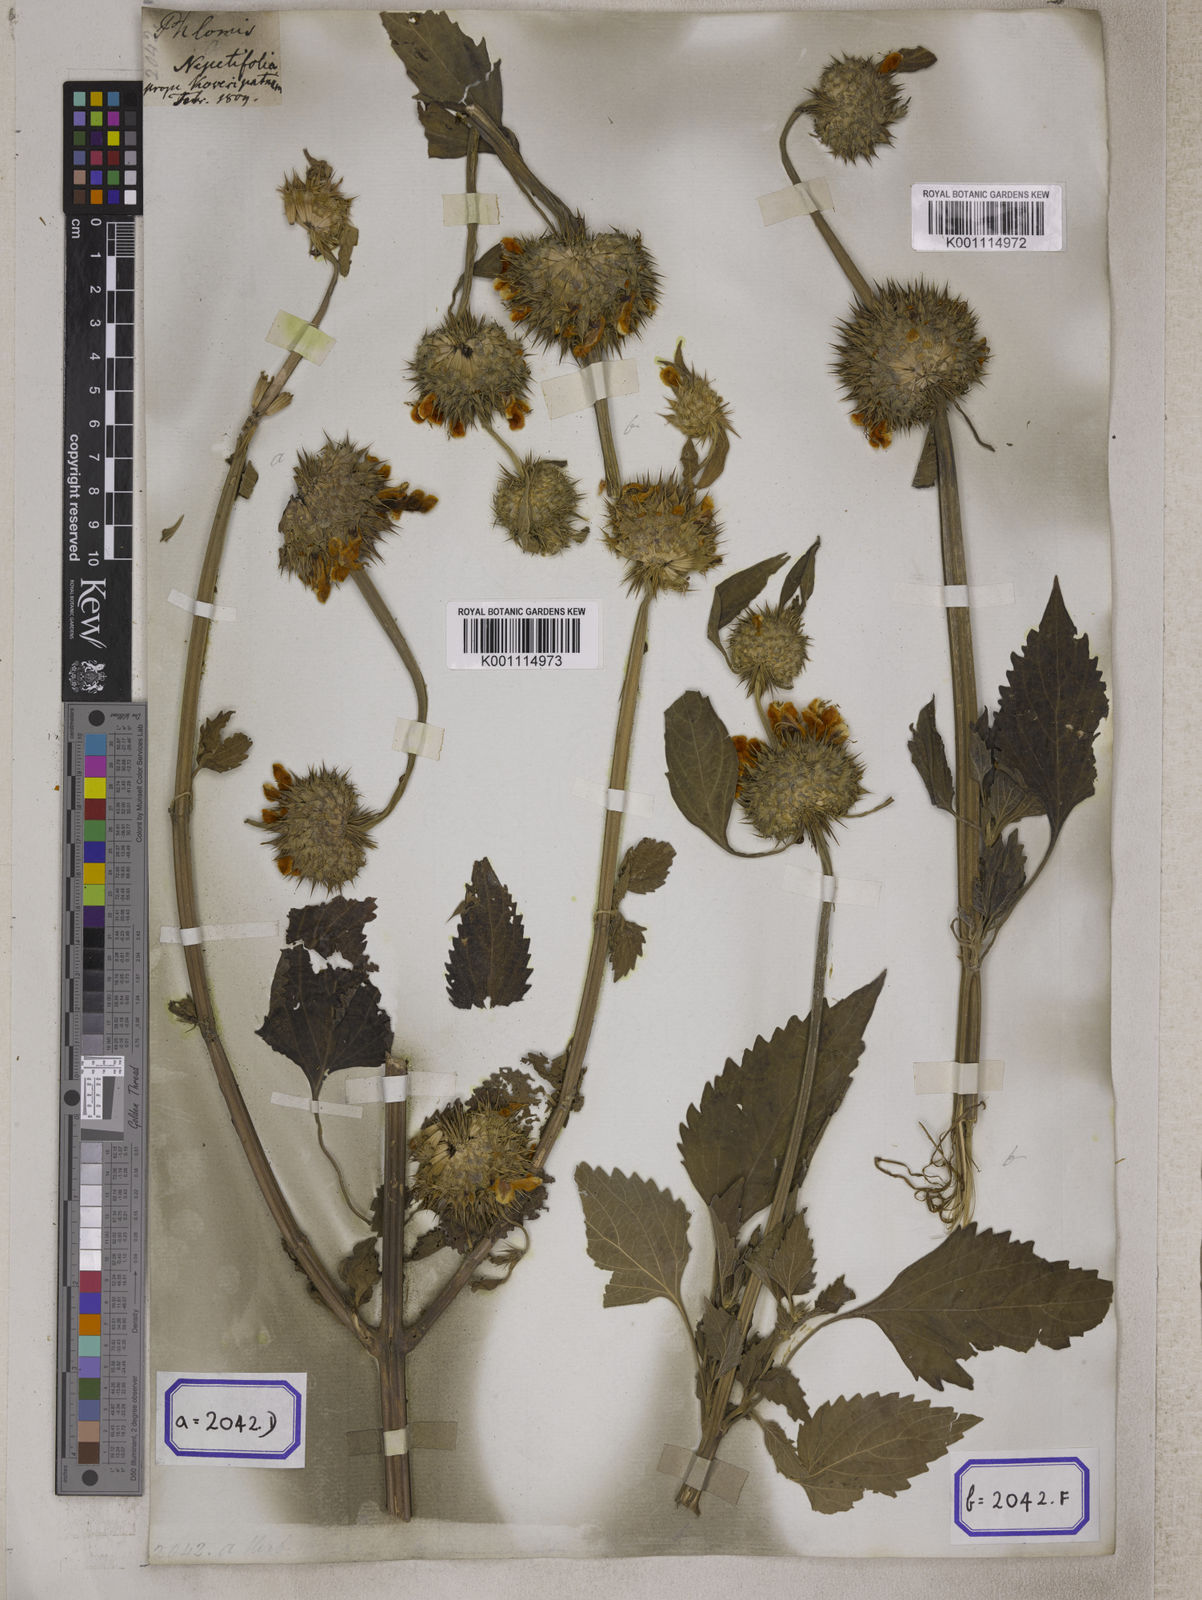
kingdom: Plantae
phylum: Tracheophyta
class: Magnoliopsida
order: Lamiales
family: Lamiaceae
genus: Leonotis
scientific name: Leonotis nepetifolia
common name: Christmas candlestick
